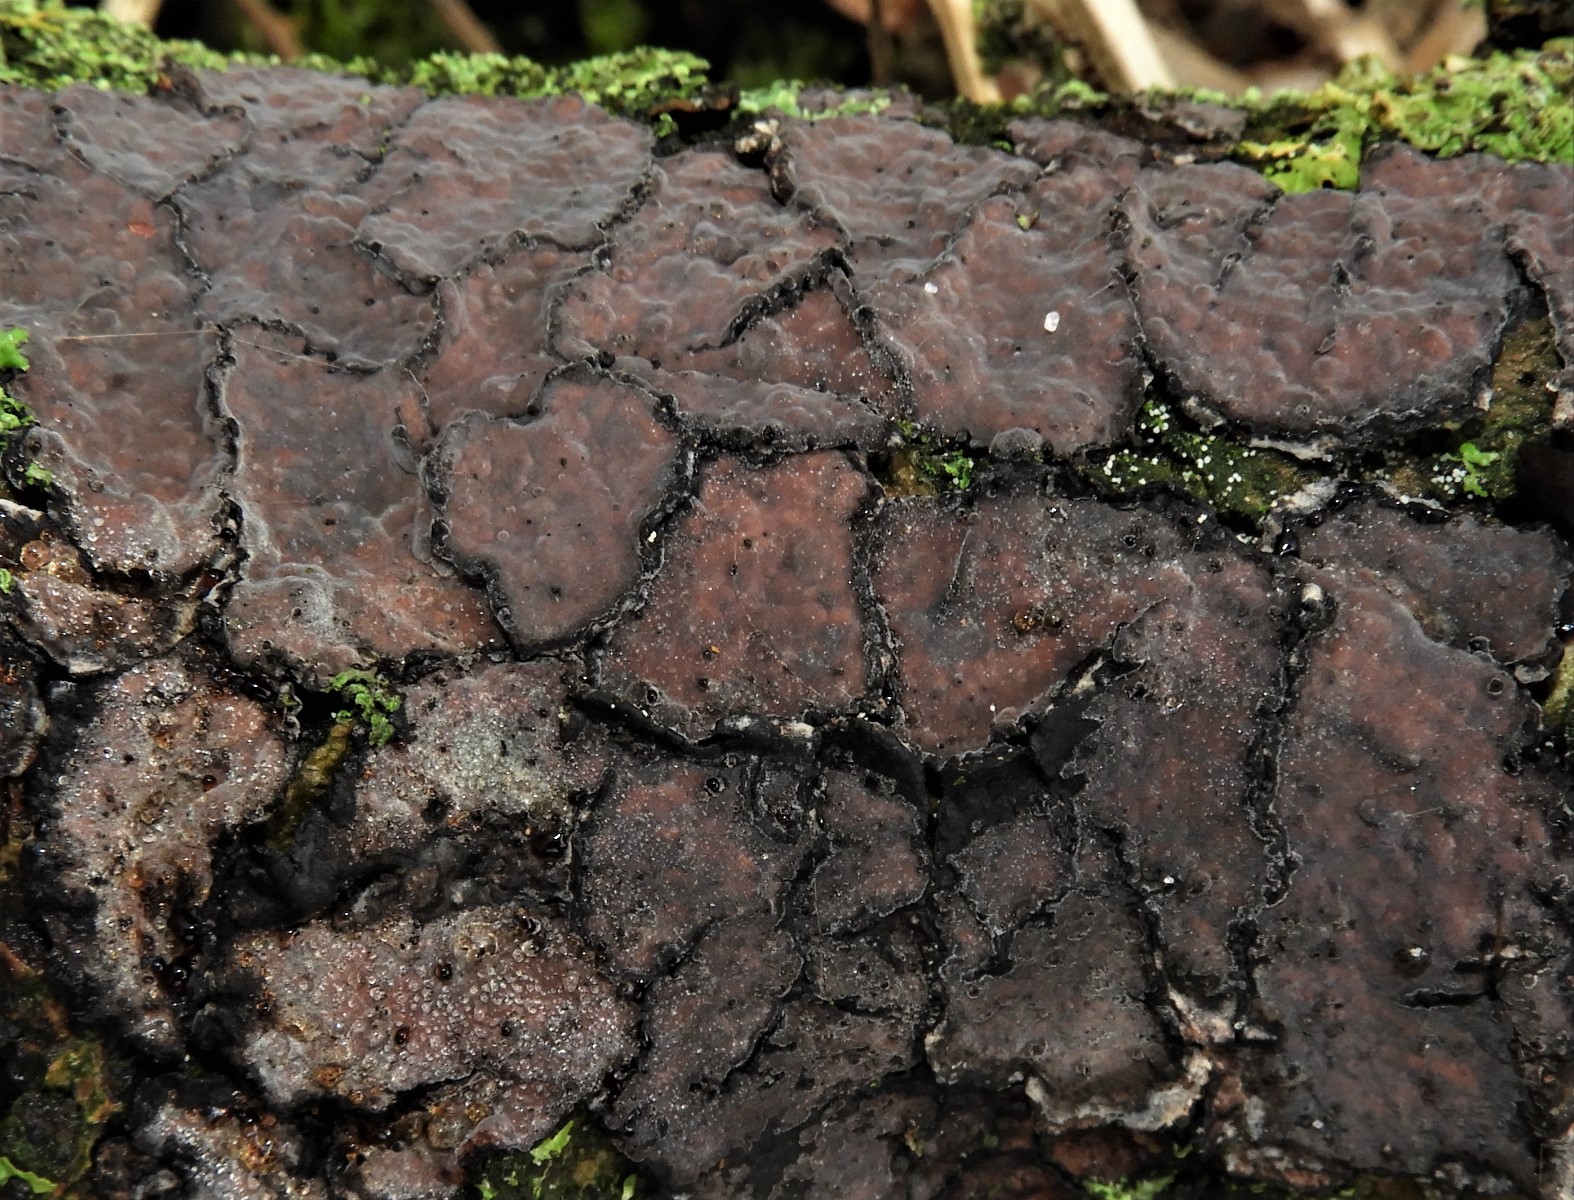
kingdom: Fungi
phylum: Basidiomycota
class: Agaricomycetes
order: Russulales
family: Peniophoraceae
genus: Peniophora
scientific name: Peniophora quercina
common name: ege-voksskind
